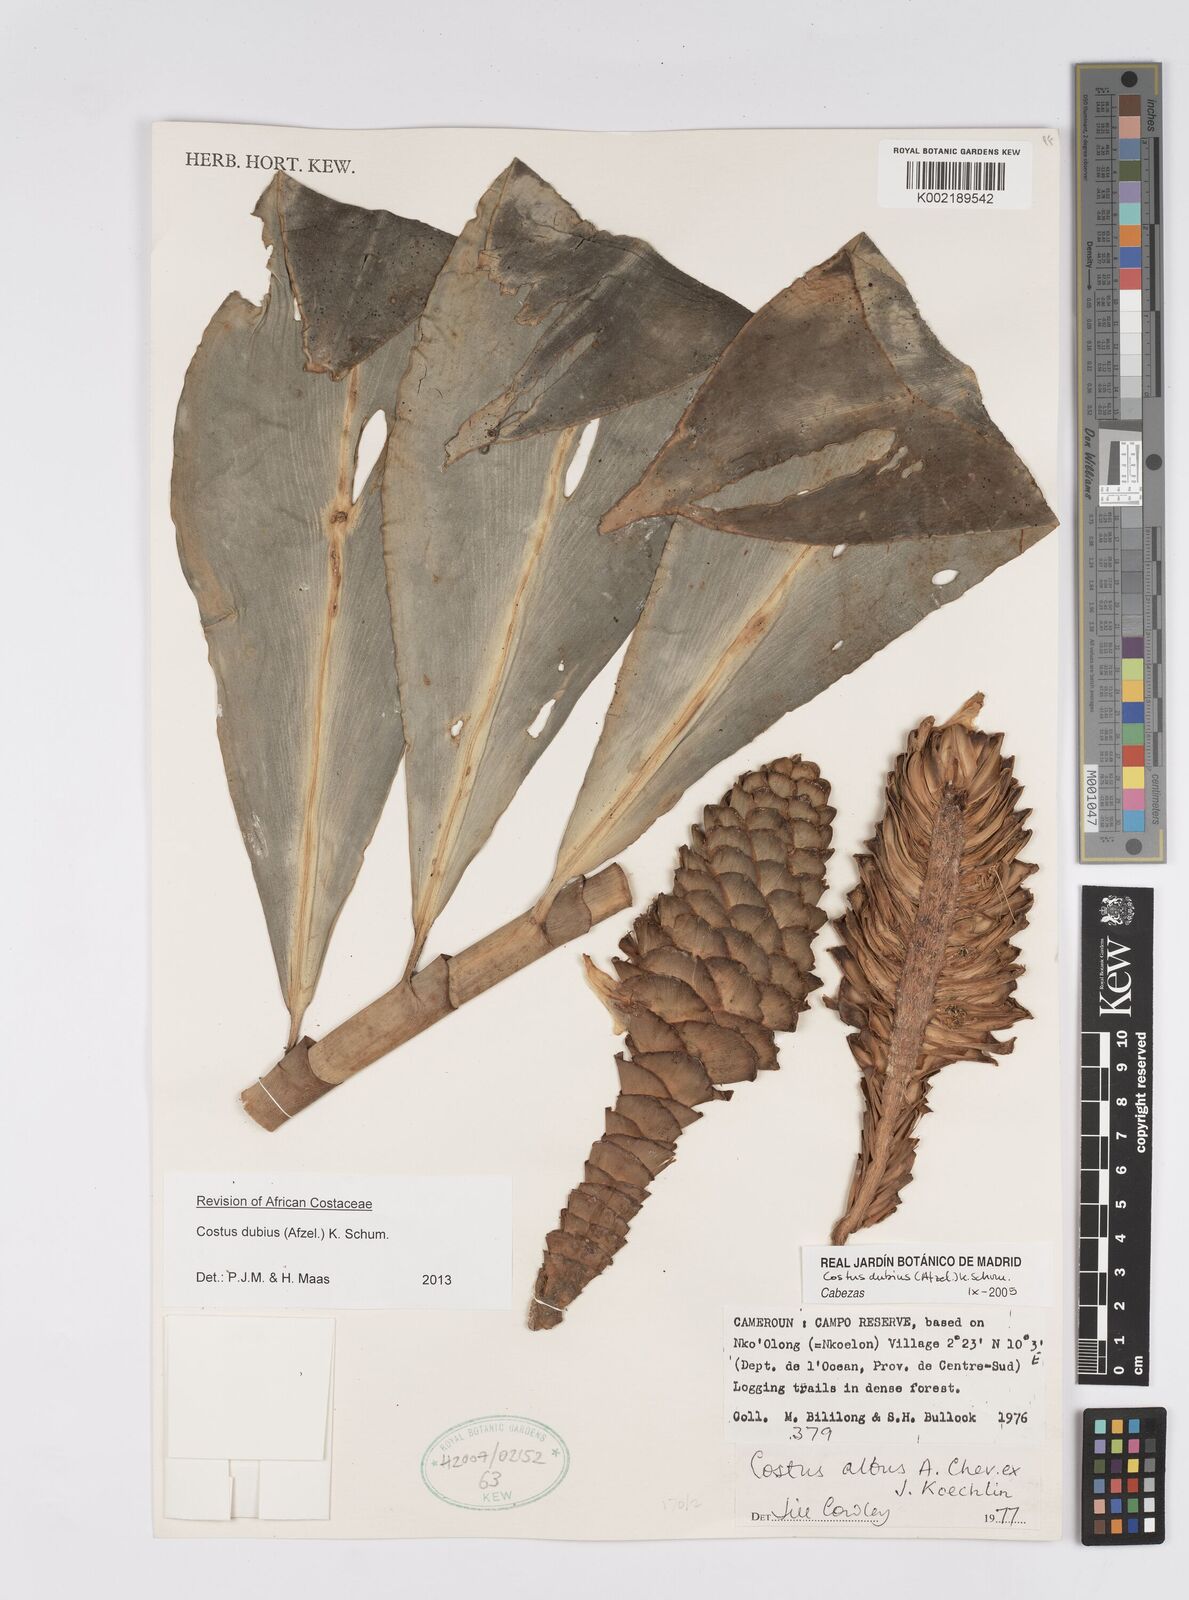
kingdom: Plantae
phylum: Tracheophyta
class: Liliopsida
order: Zingiberales
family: Costaceae
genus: Costus
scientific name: Costus dubius
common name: Costus
